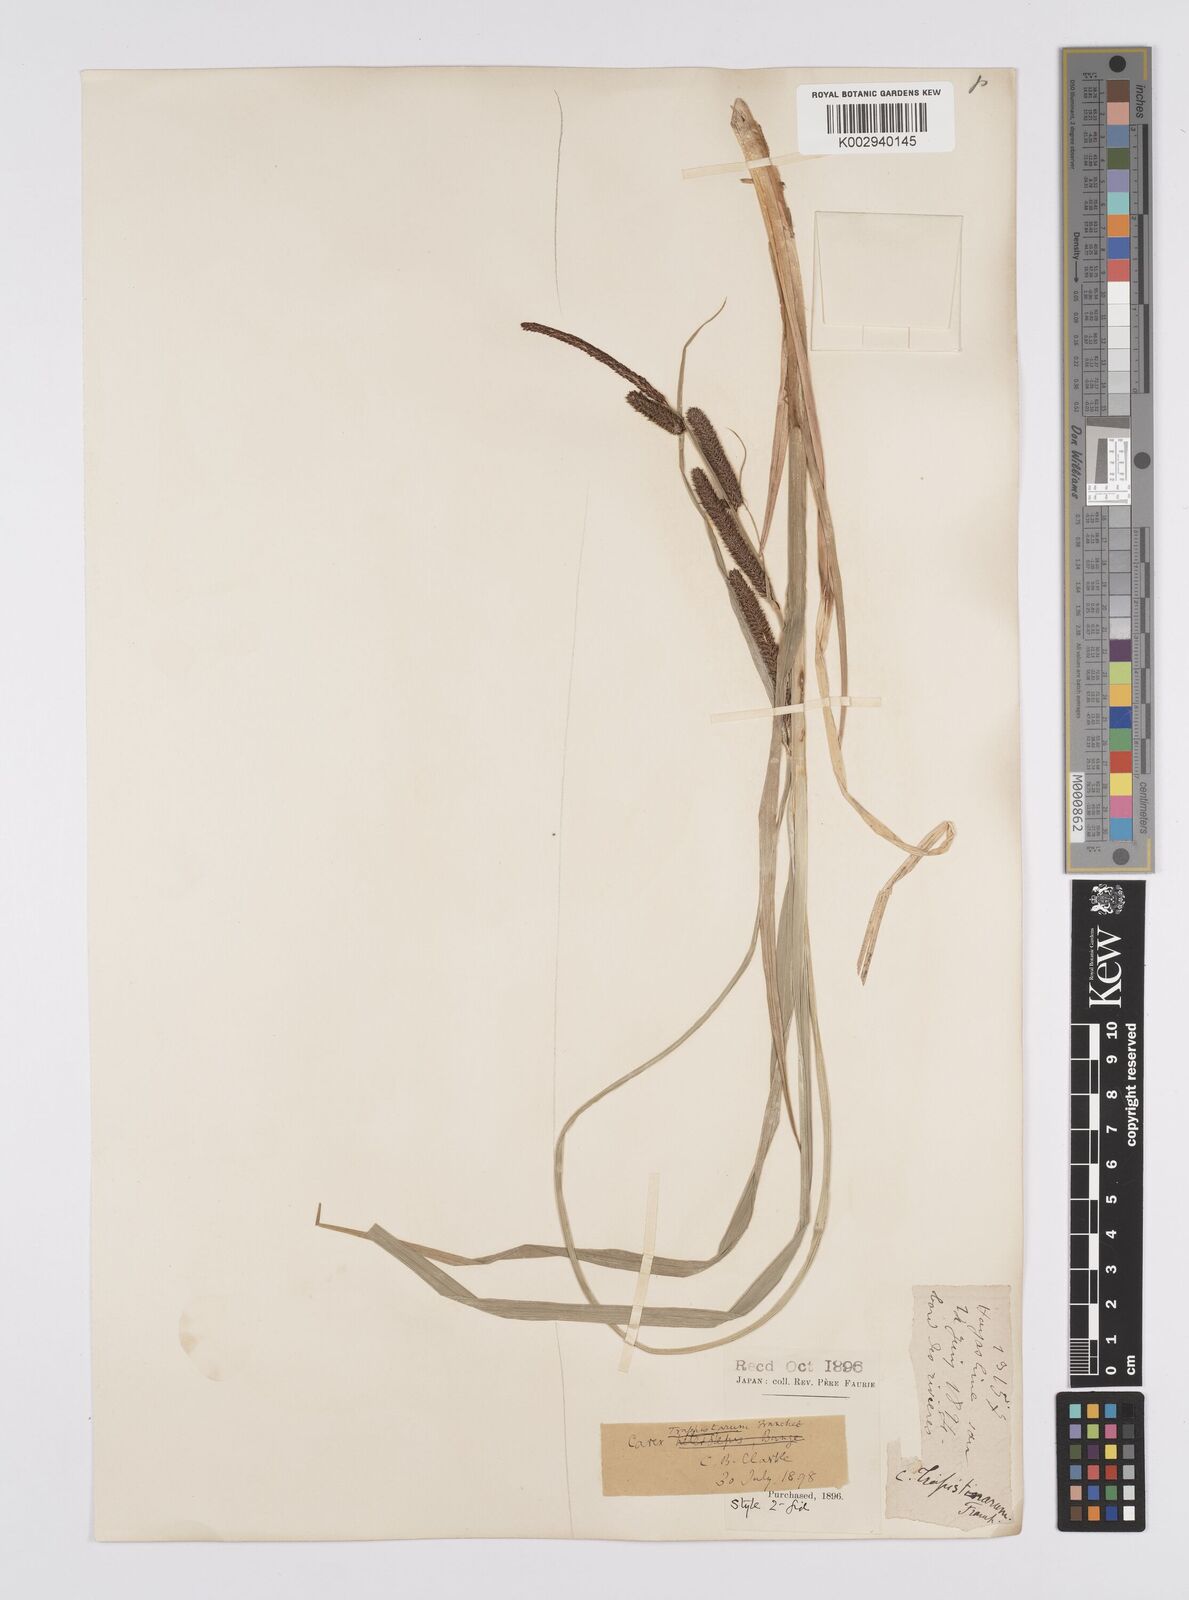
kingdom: Plantae
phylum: Tracheophyta
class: Liliopsida
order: Poales
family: Cyperaceae
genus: Carex
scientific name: Carex cruenta
